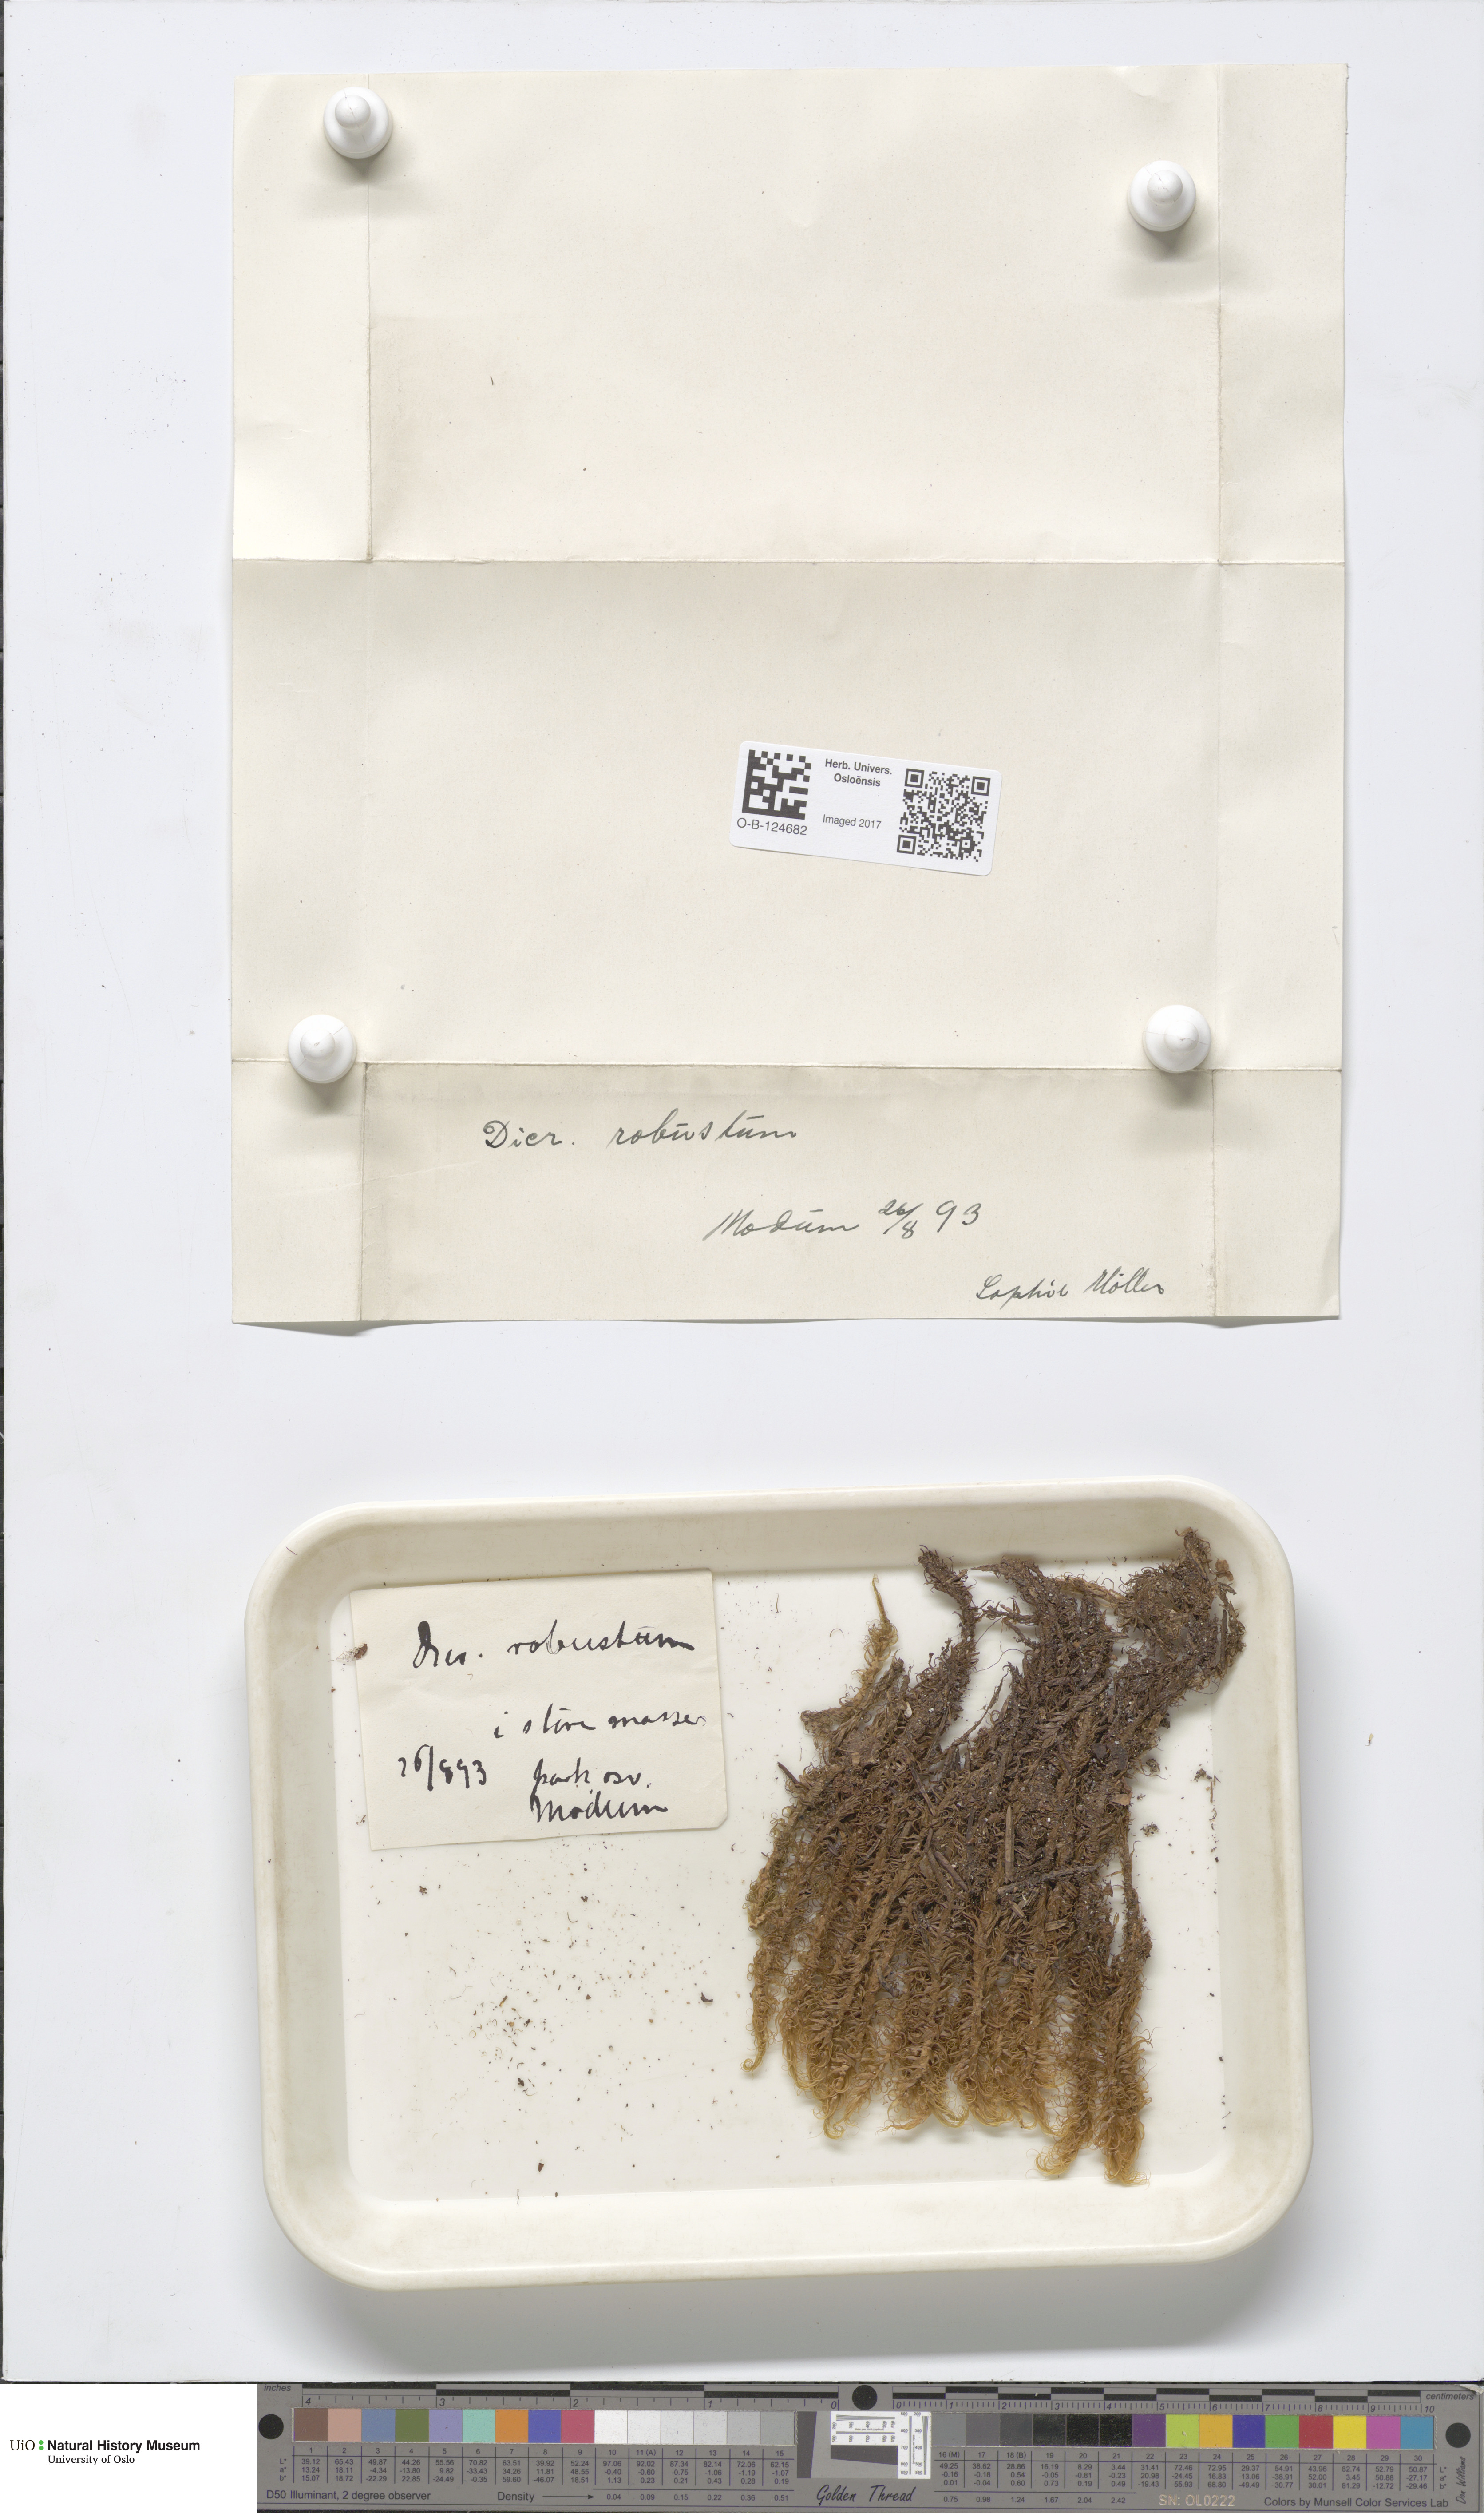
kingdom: Plantae
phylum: Bryophyta
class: Bryopsida
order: Dicranales
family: Dicranaceae
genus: Dicranum
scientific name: Dicranum drummondii
